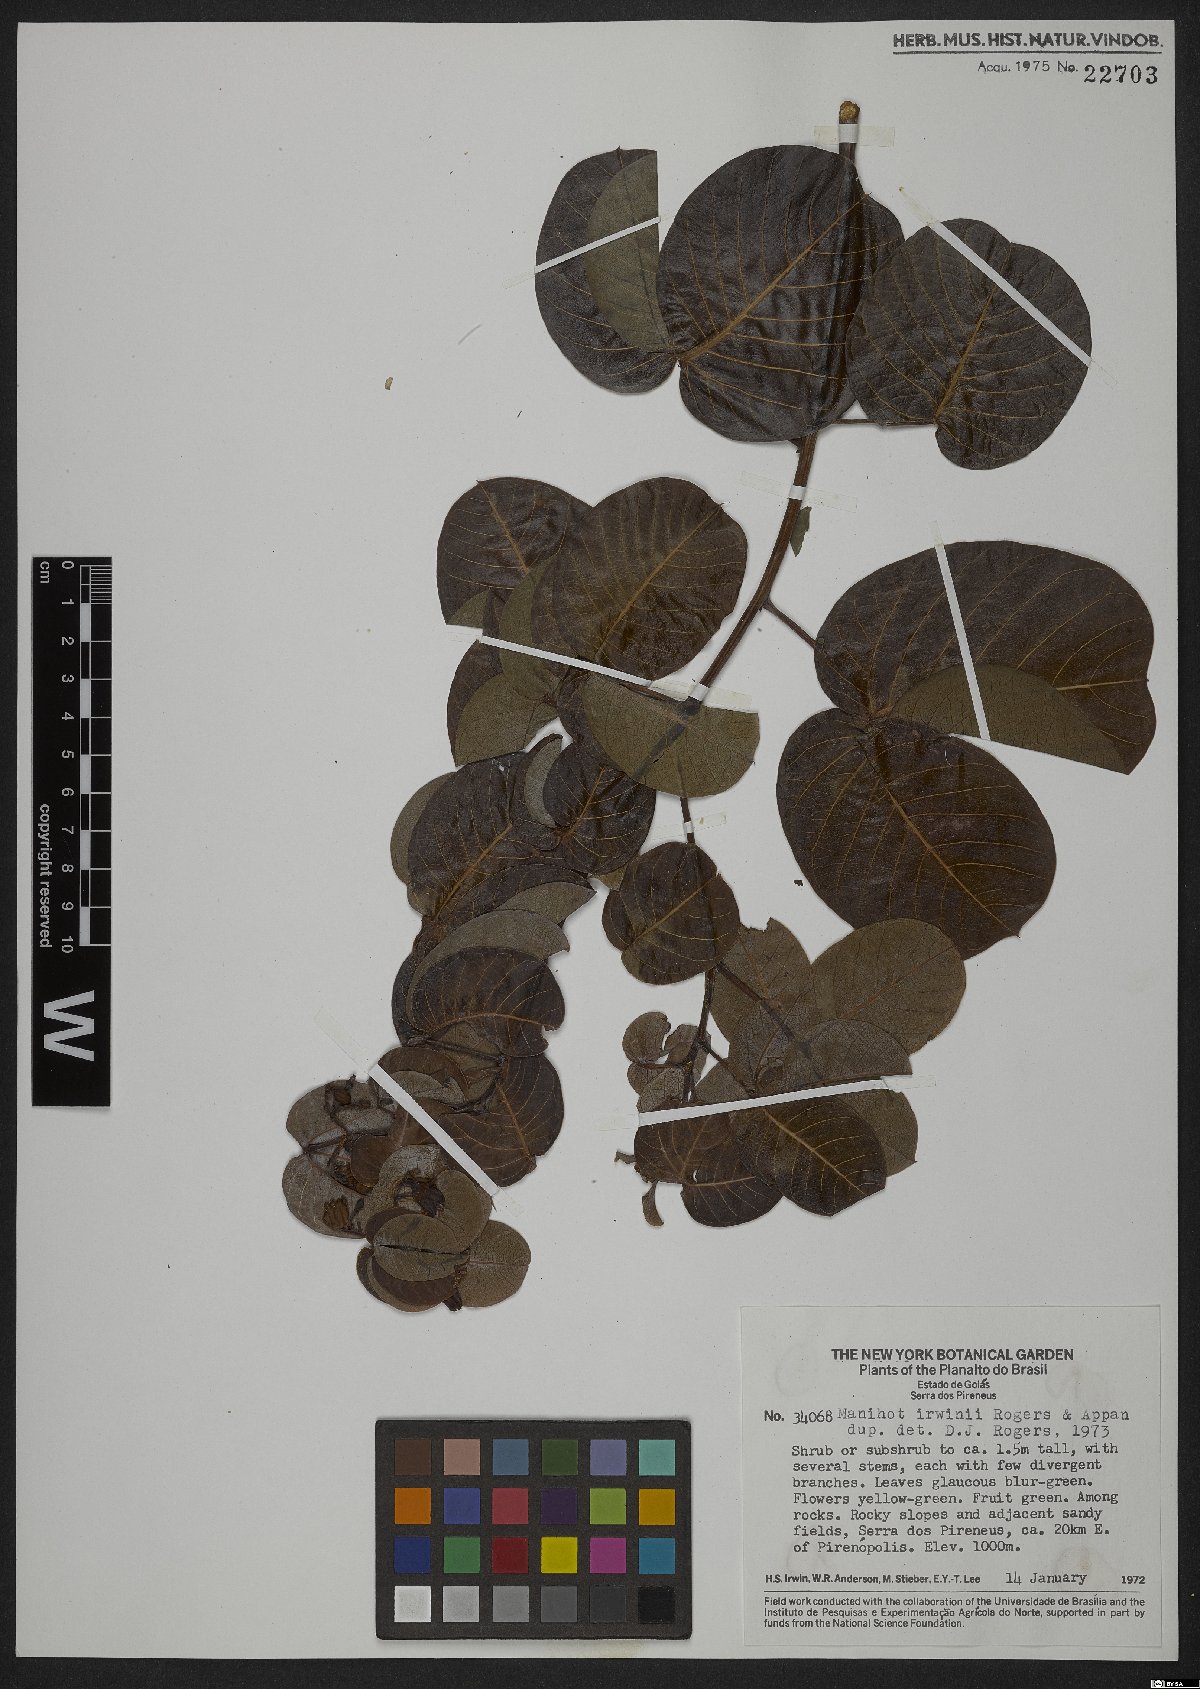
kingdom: Plantae
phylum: Tracheophyta
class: Magnoliopsida
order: Malpighiales
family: Euphorbiaceae
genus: Manihot
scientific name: Manihot irwinii
